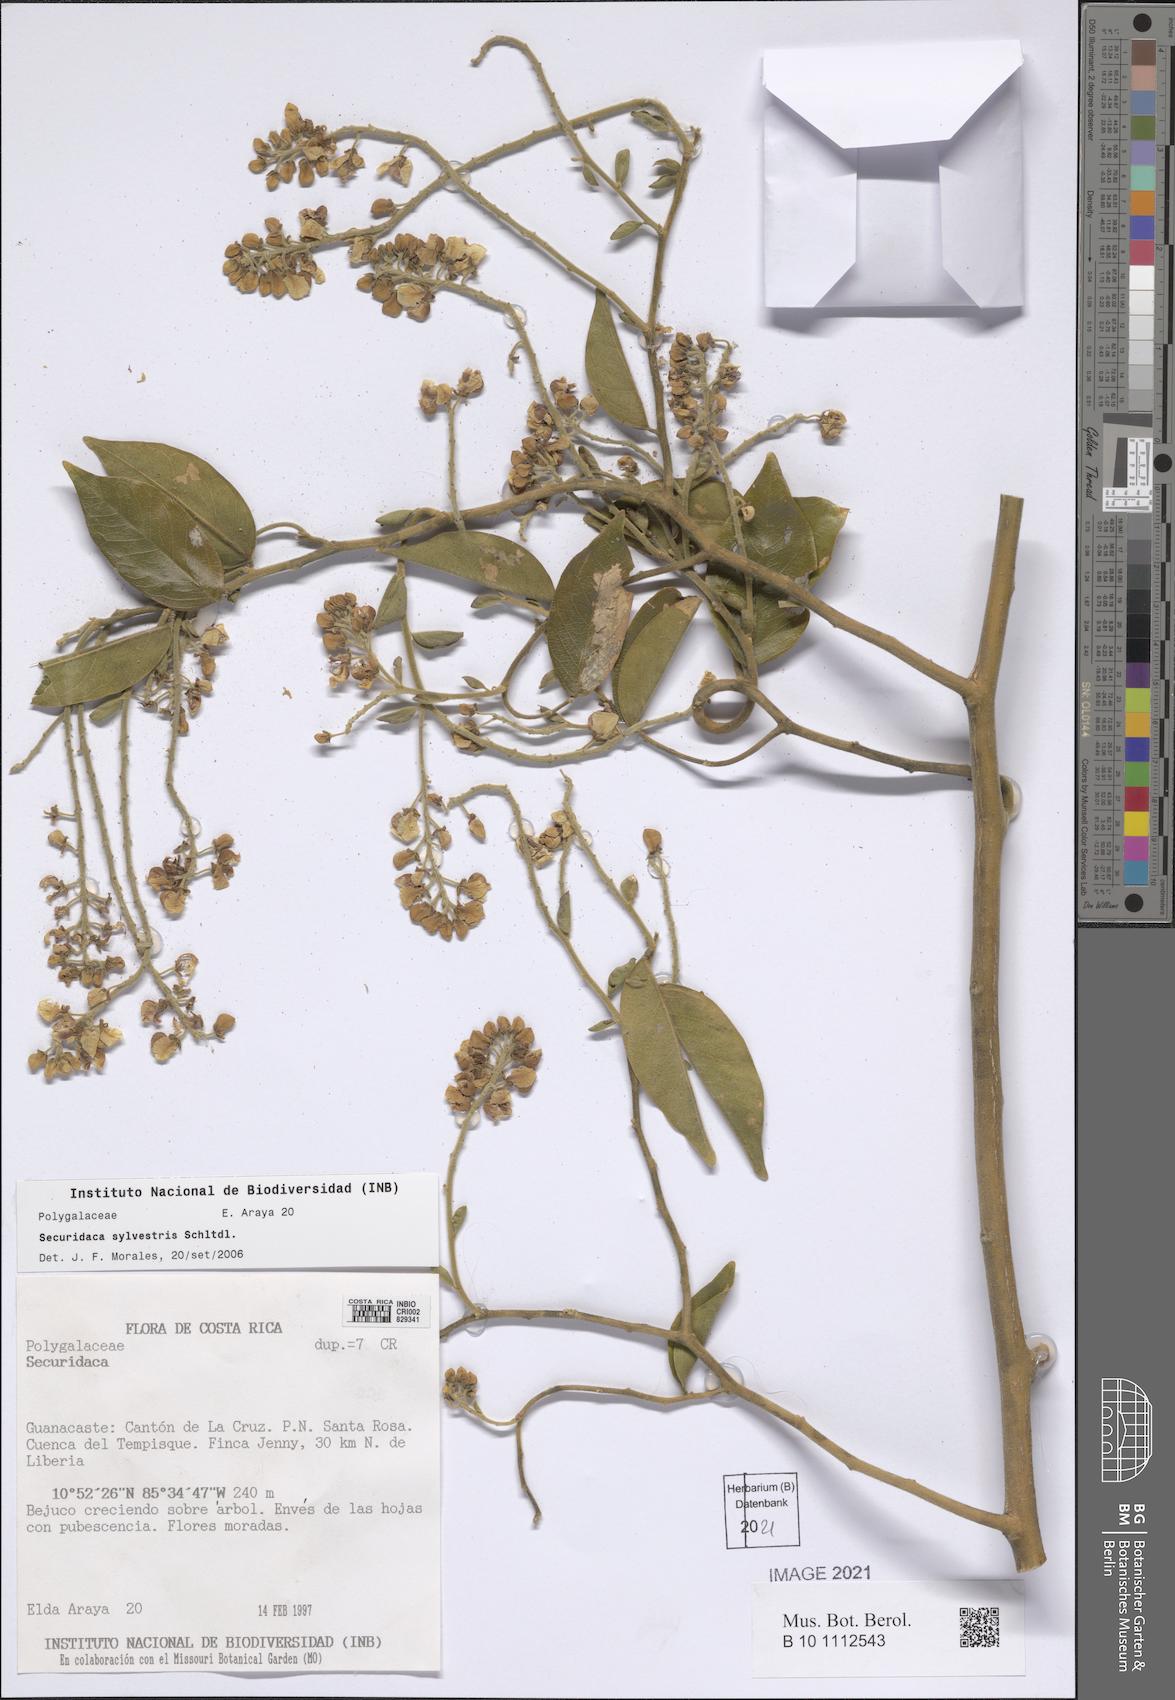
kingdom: Plantae
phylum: Tracheophyta
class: Magnoliopsida
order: Fabales
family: Polygalaceae
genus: Securidaca
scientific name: Securidaca sylvestris
